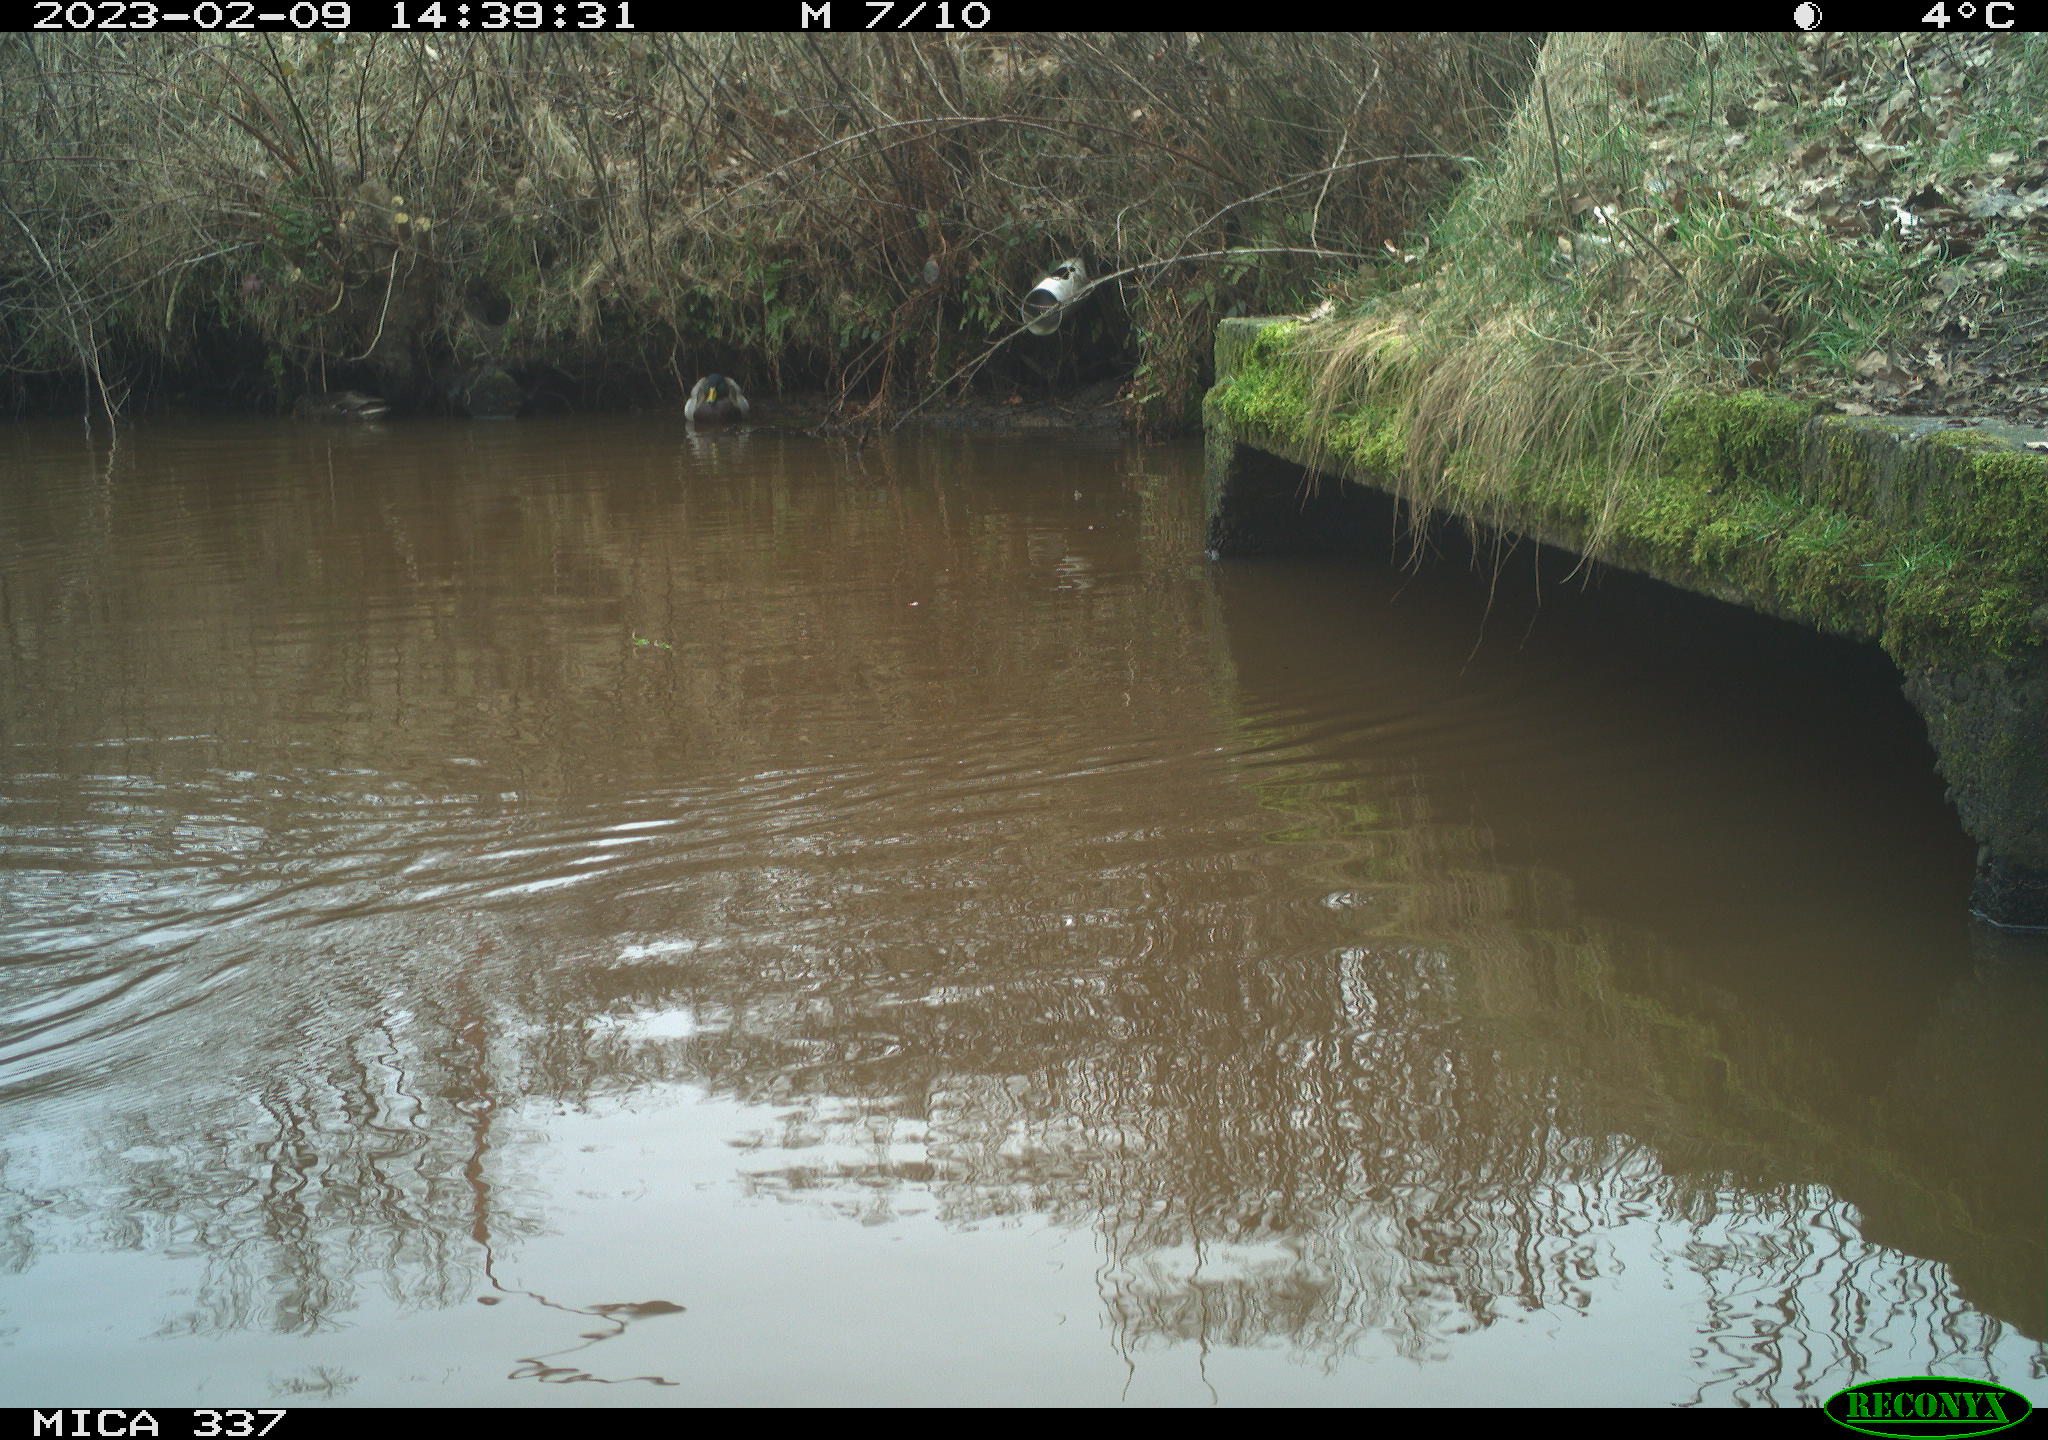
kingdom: Animalia
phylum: Chordata
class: Aves
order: Gruiformes
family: Rallidae
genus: Fulica
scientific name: Fulica atra
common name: Eurasian coot
